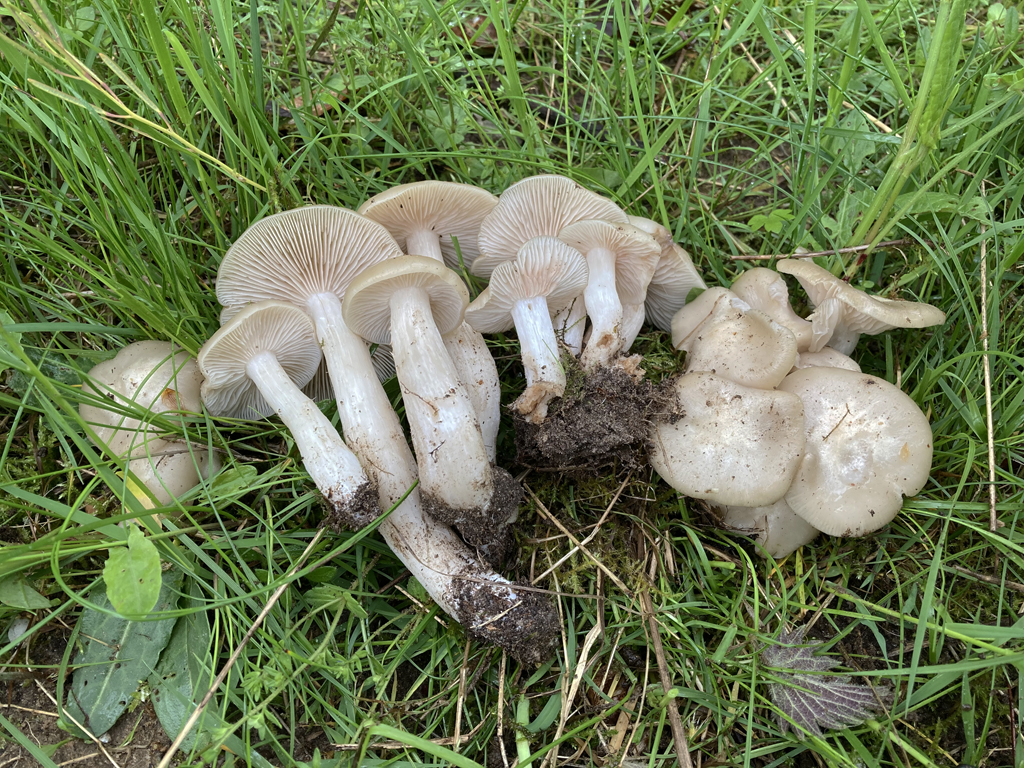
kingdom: Fungi
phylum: Basidiomycota
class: Agaricomycetes
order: Agaricales
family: Entolomataceae
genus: Entoloma
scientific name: Entoloma sepium
